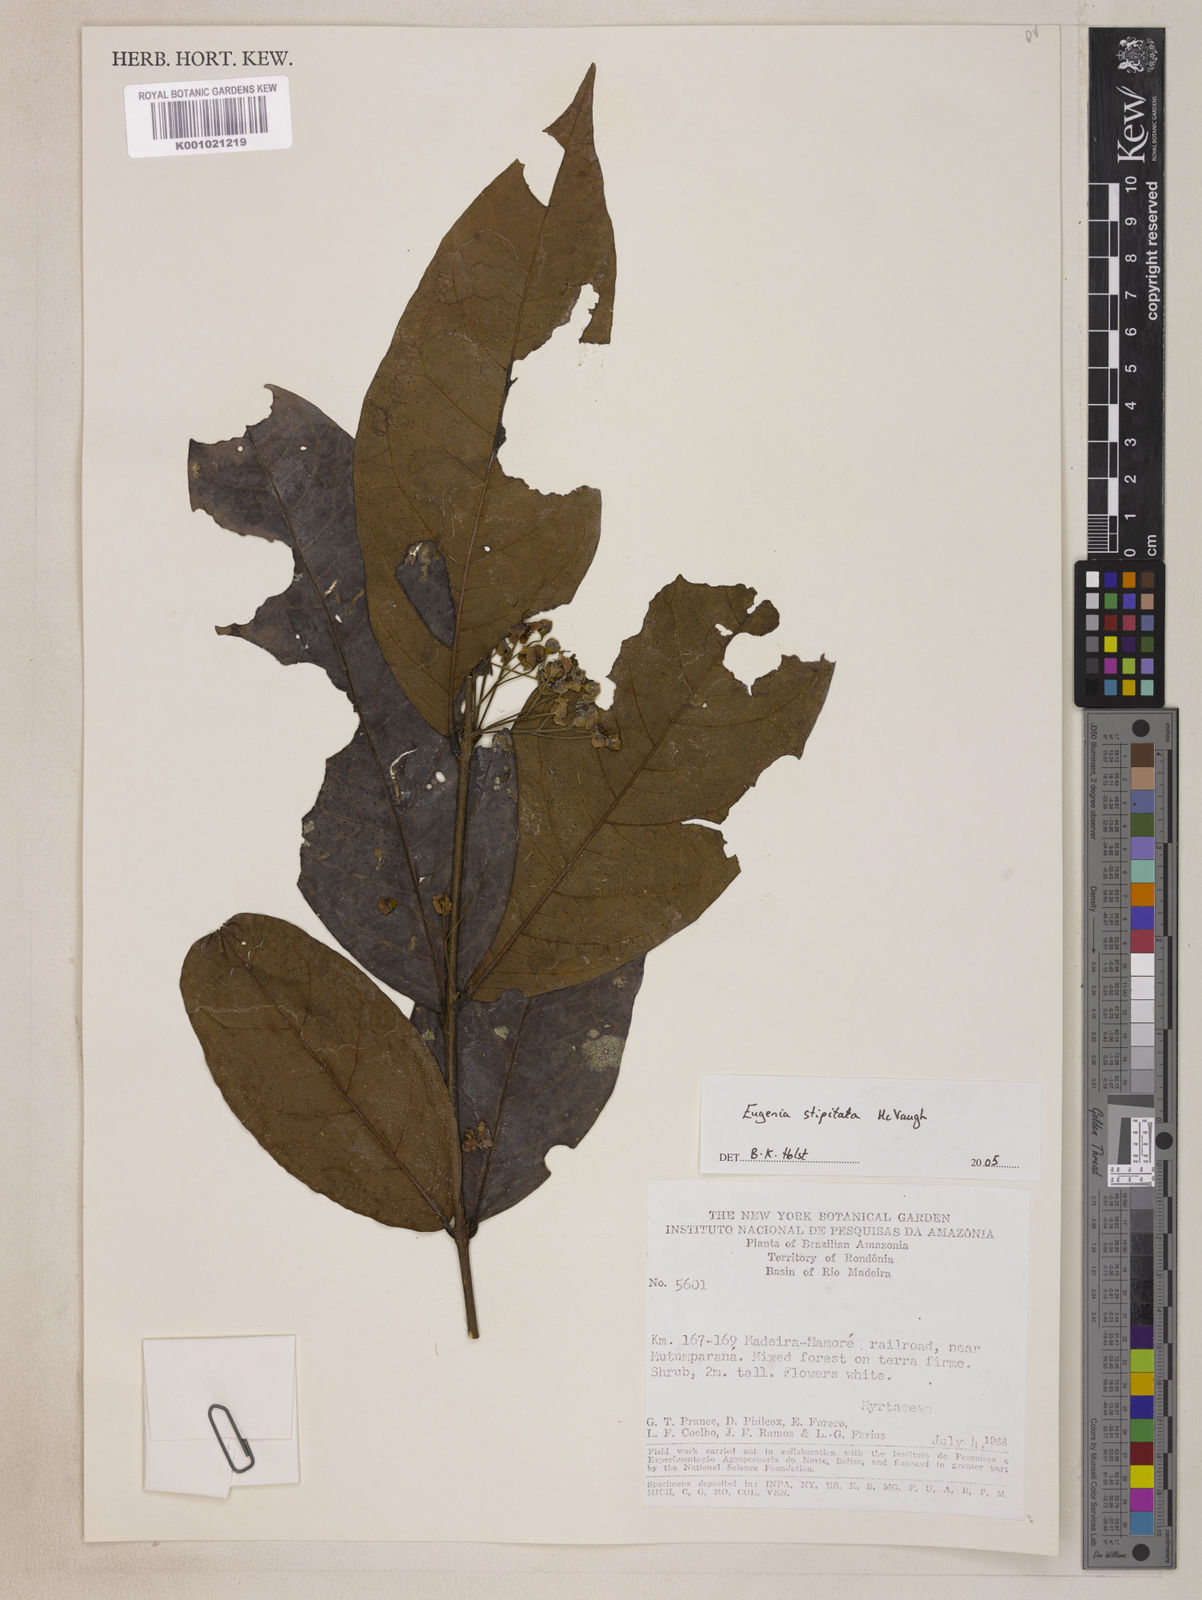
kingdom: Plantae
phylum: Tracheophyta
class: Magnoliopsida
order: Myrtales
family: Myrtaceae
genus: Eugenia
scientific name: Eugenia stipitata
